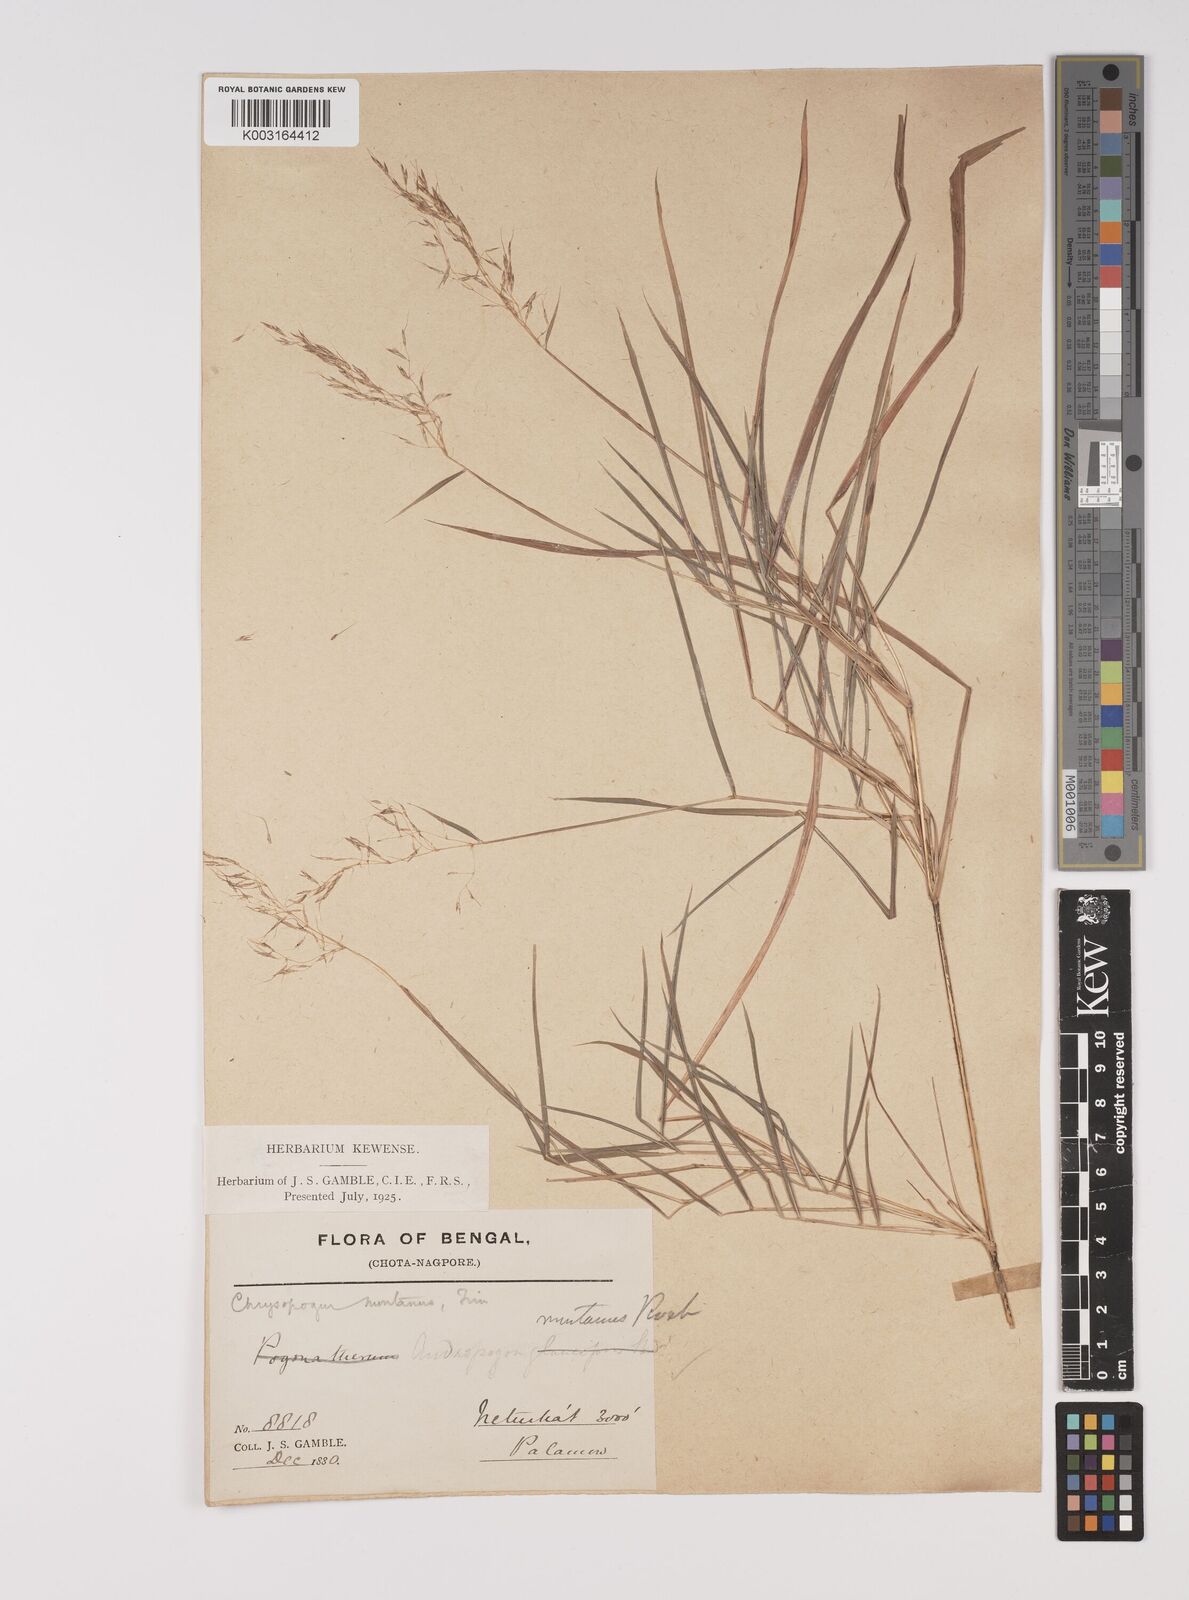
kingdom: Plantae
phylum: Tracheophyta
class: Liliopsida
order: Poales
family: Poaceae
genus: Capillipedium
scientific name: Capillipedium assimile
